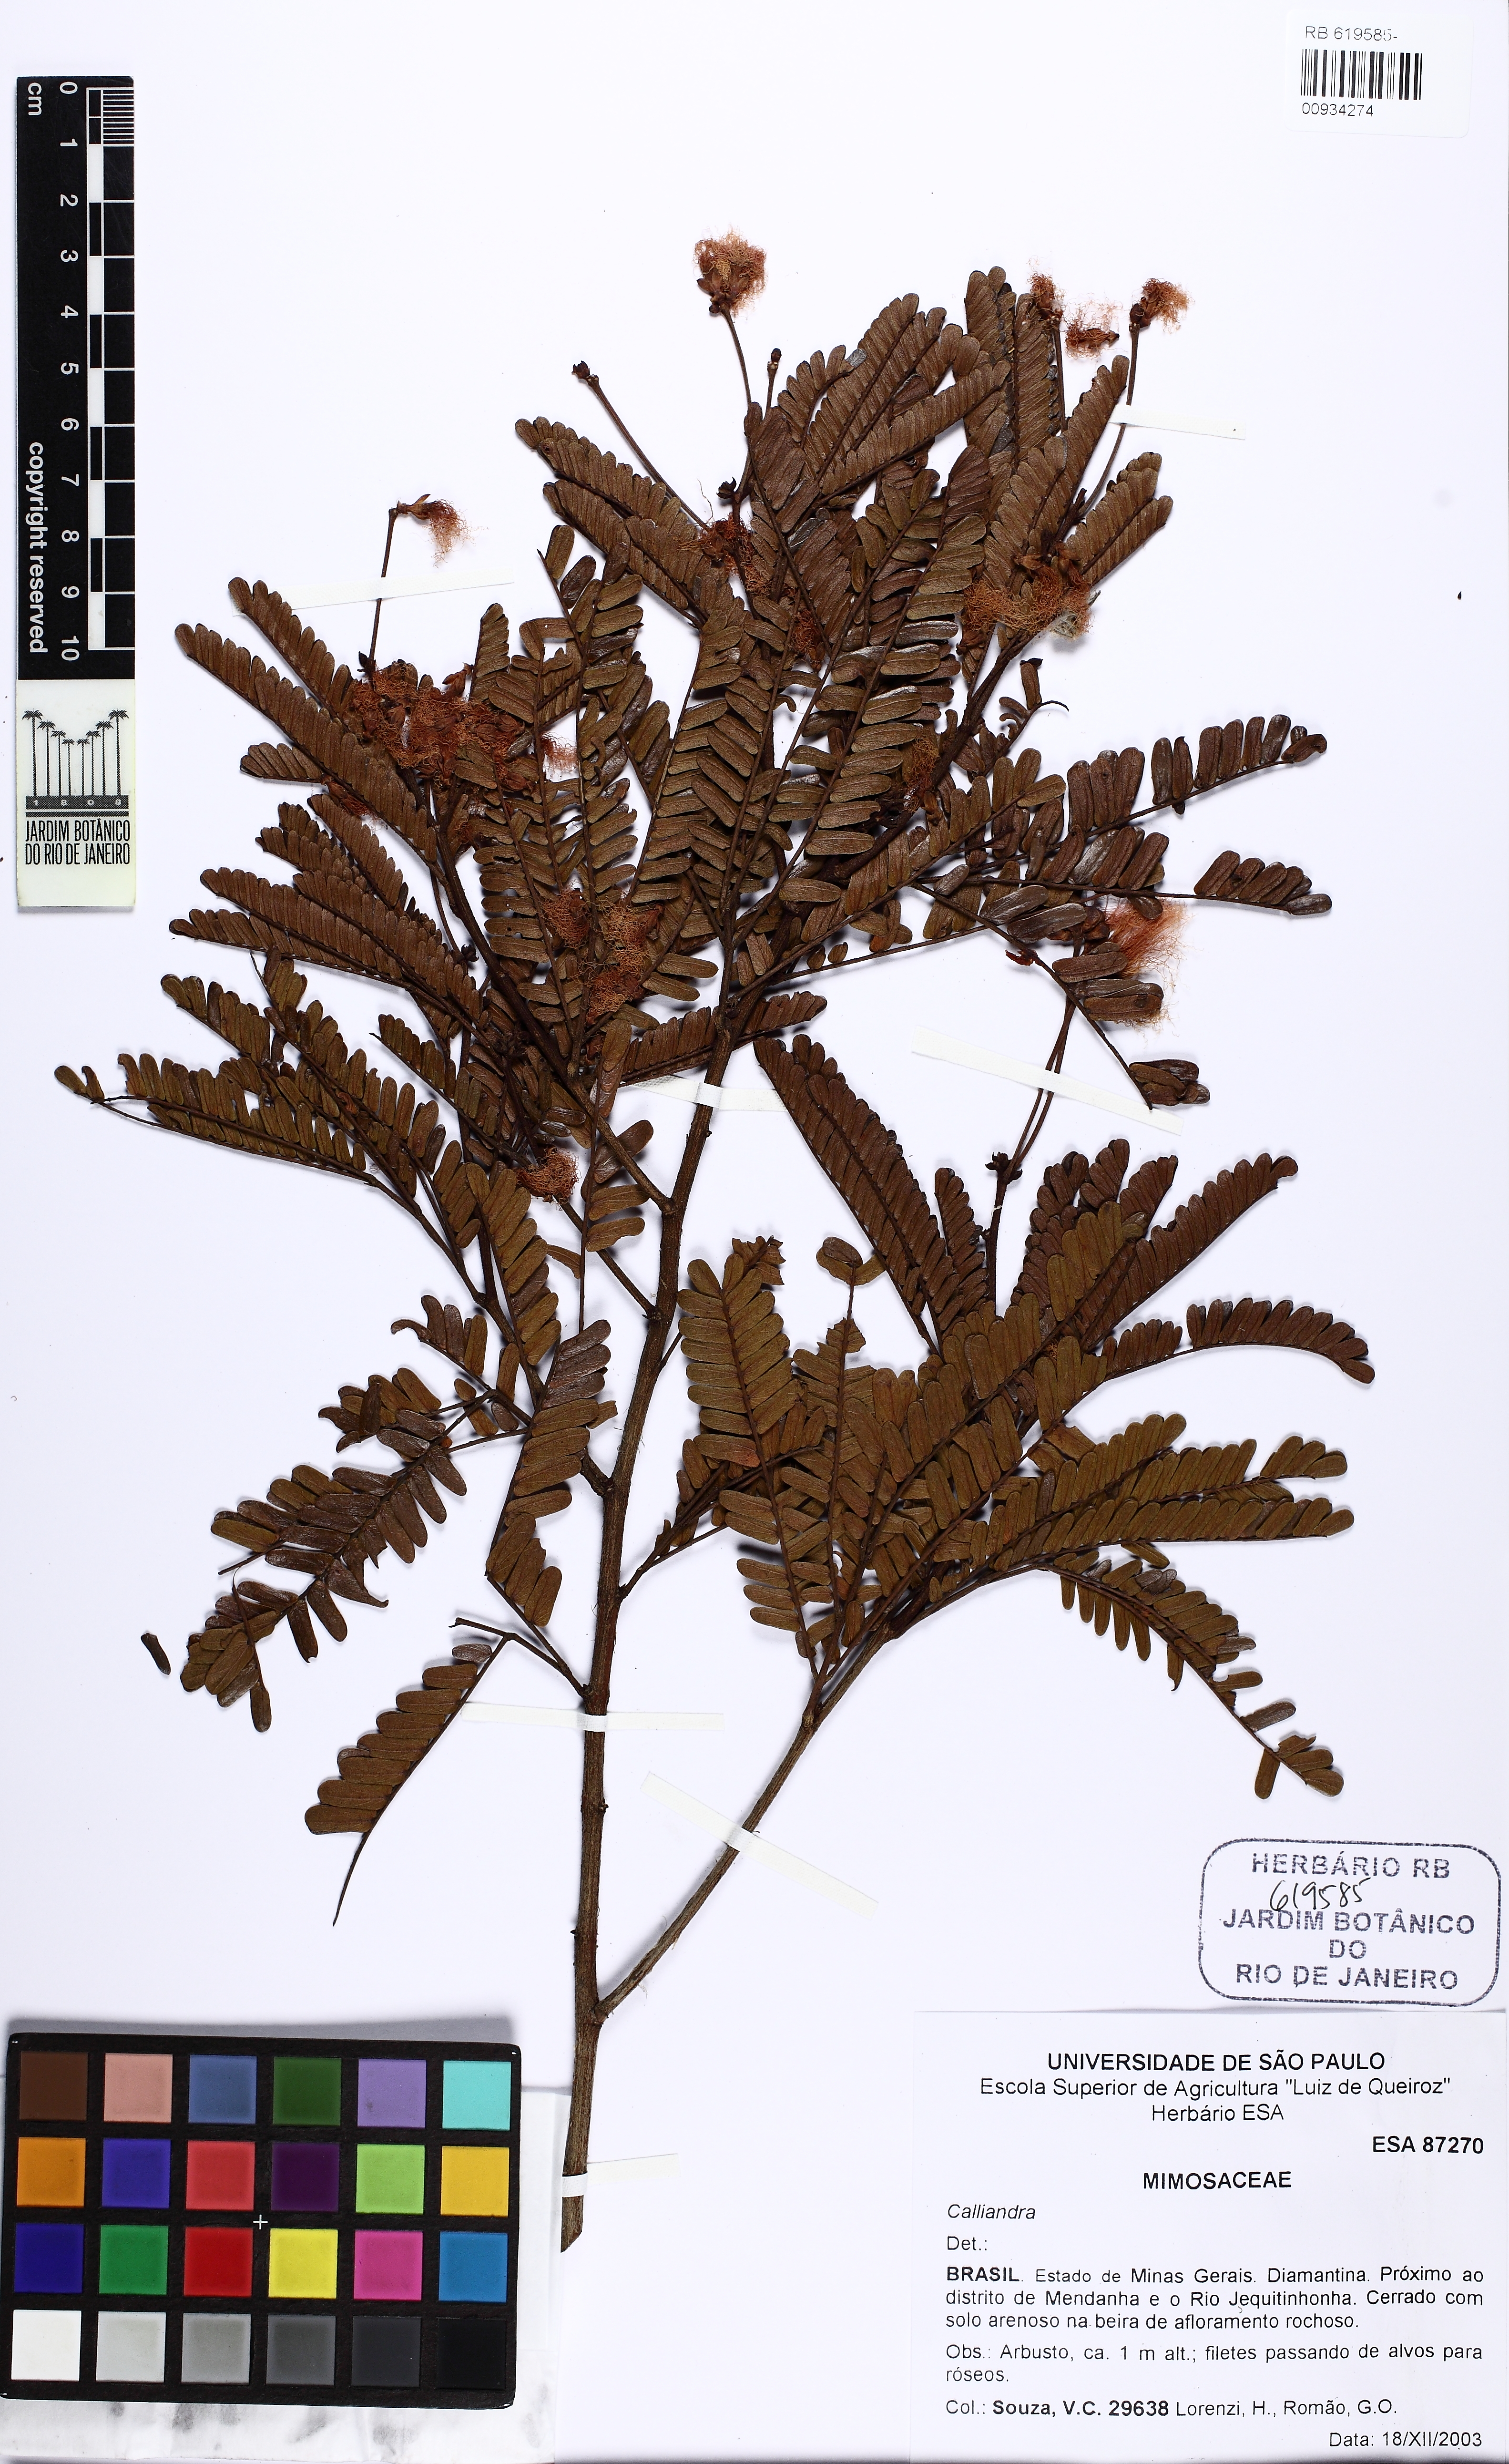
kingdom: Plantae
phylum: Tracheophyta
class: Magnoliopsida
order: Fabales
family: Fabaceae
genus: Calliandra
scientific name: Calliandra
